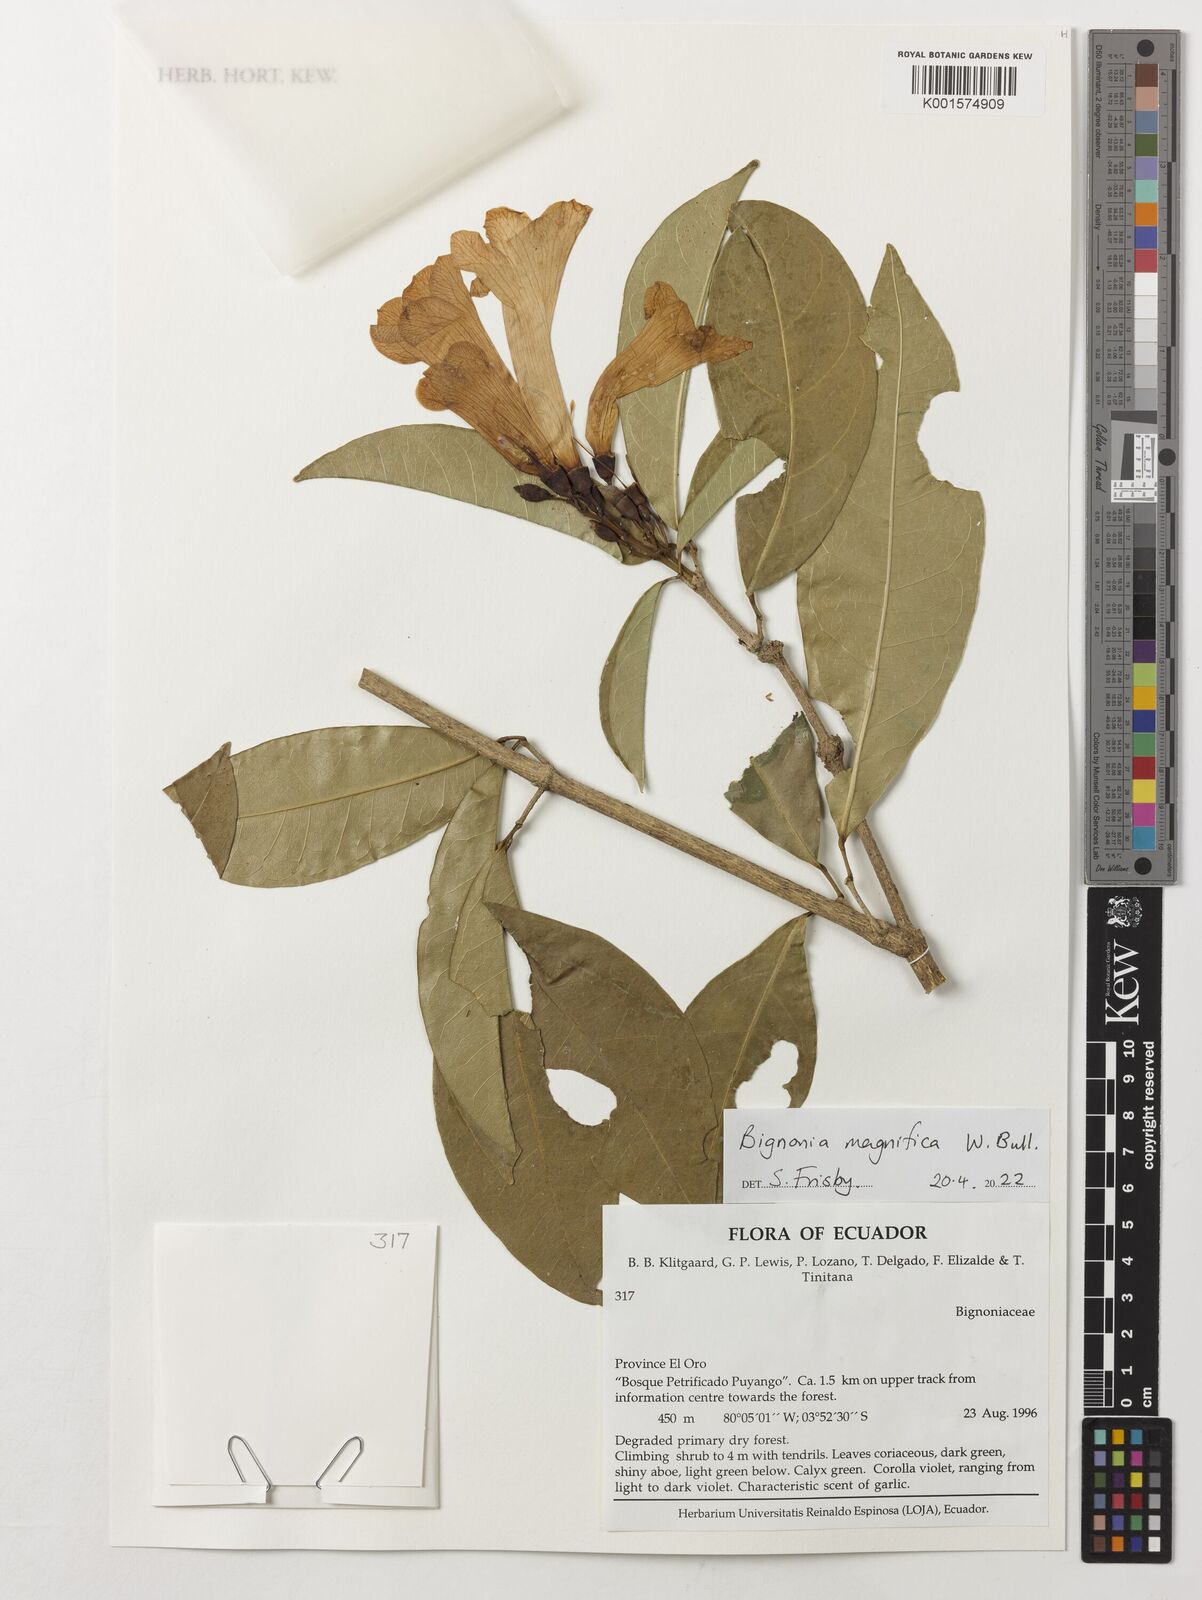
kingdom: Plantae
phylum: Tracheophyta
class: Magnoliopsida
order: Lamiales
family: Bignoniaceae
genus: Bignonia
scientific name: Bignonia magnifica
